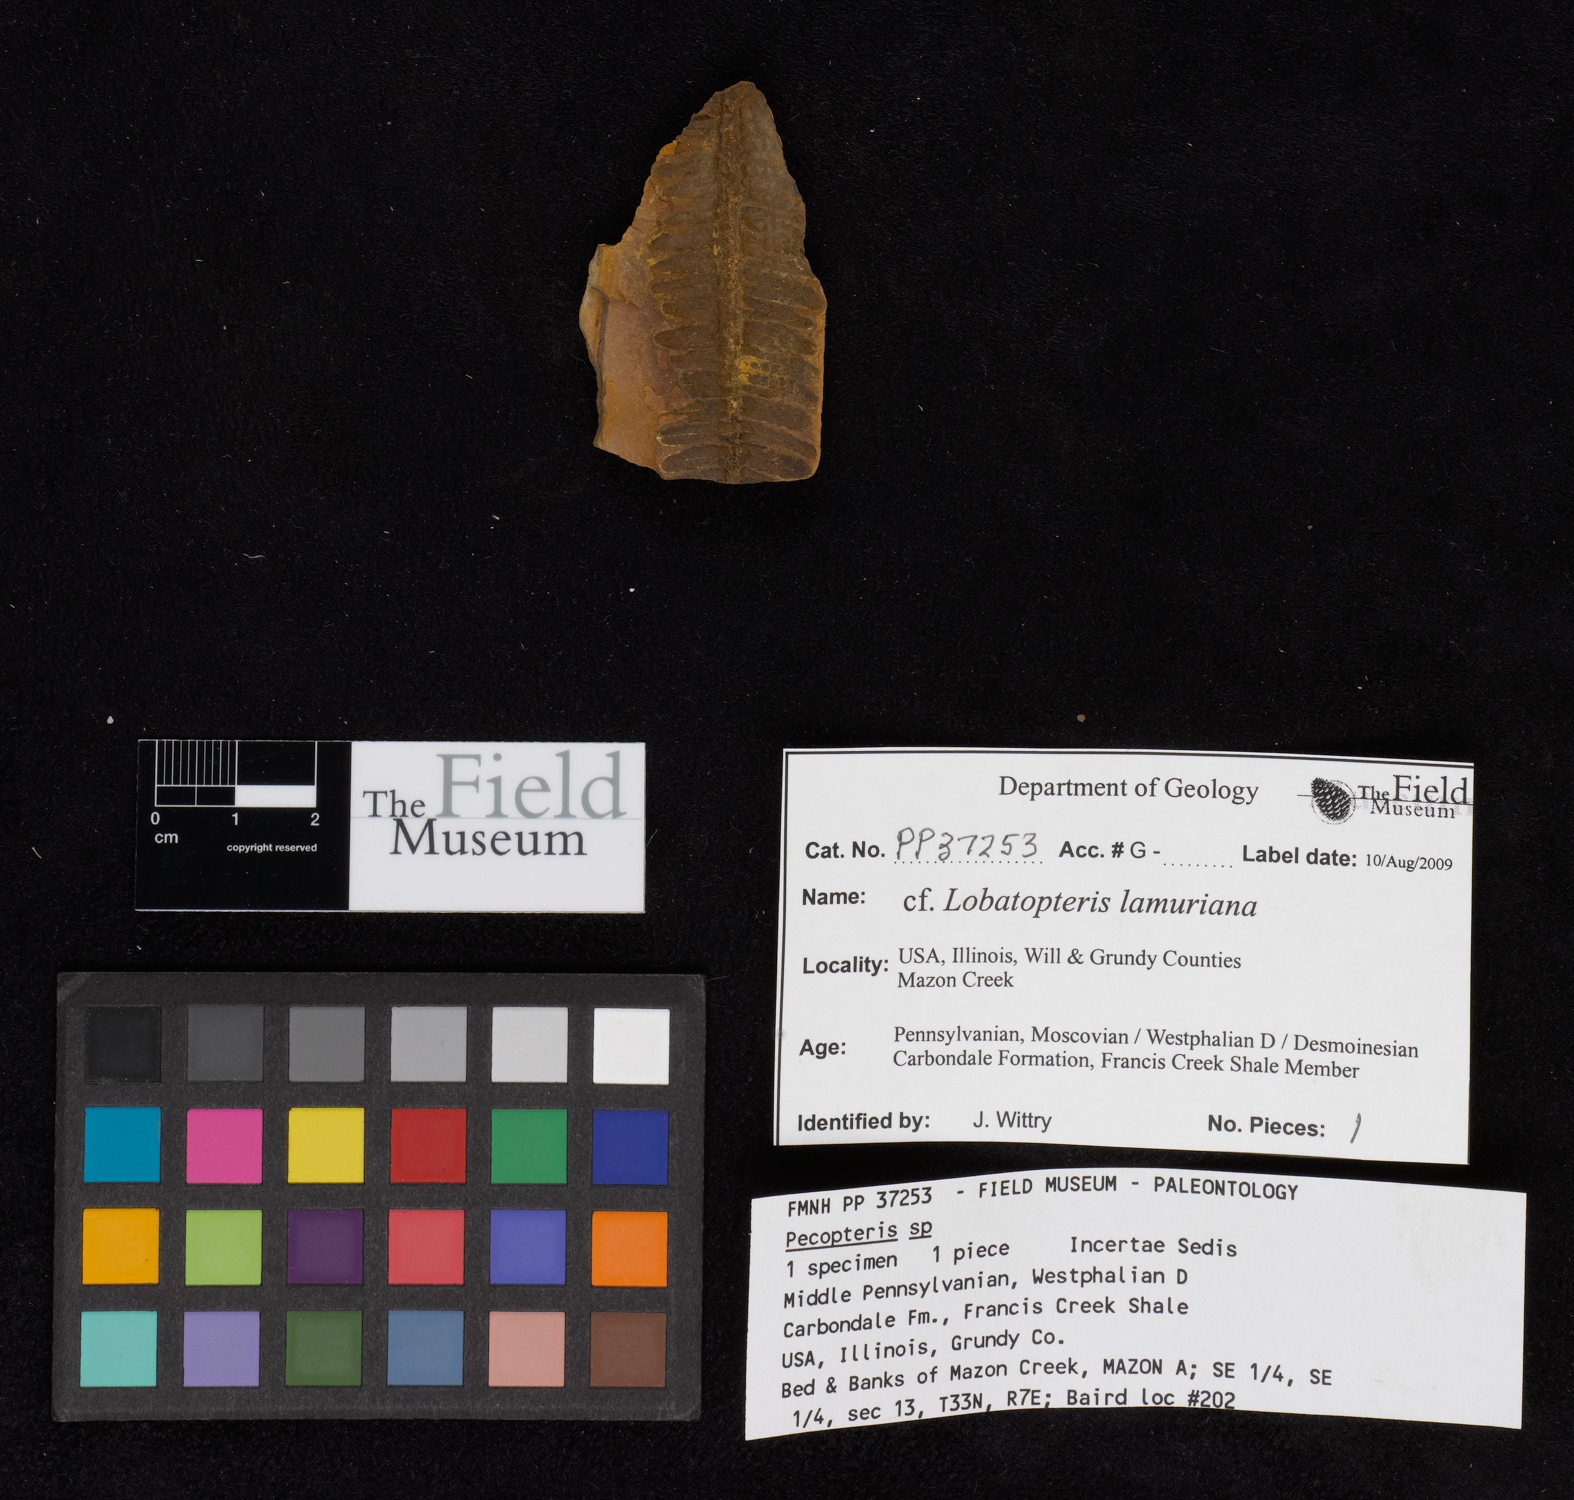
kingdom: Plantae
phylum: Tracheophyta
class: Polypodiopsida
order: Marattiales
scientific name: Marattiales
